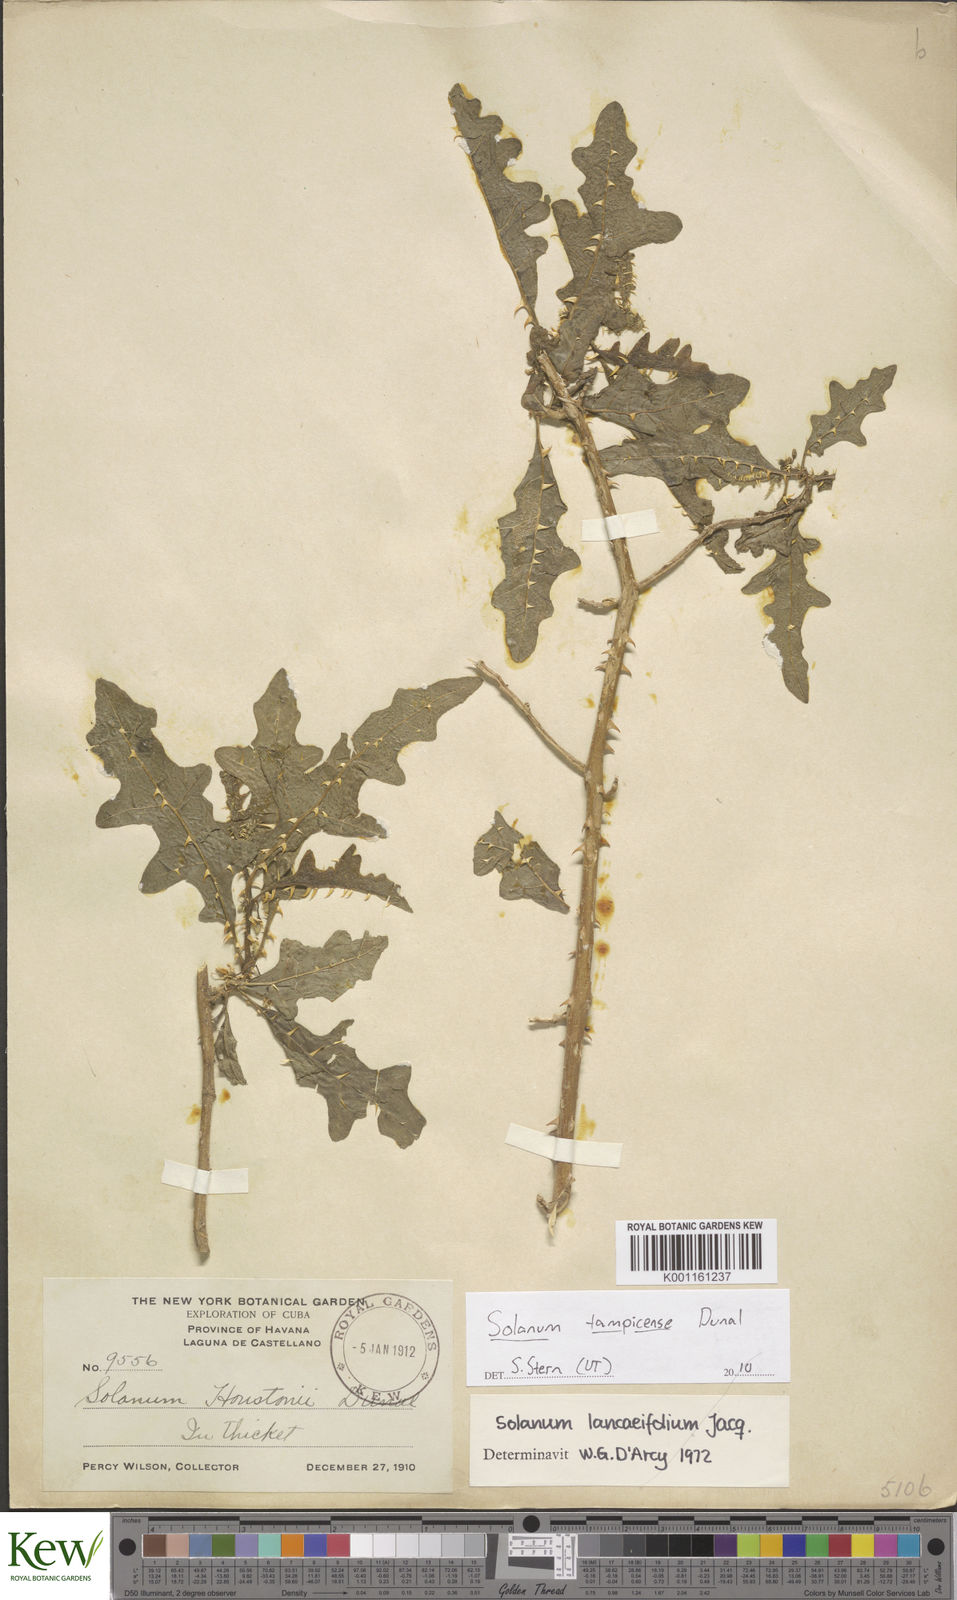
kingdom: Plantae
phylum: Tracheophyta
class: Magnoliopsida
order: Solanales
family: Solanaceae
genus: Solanum
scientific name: Solanum tampicense
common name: Scrambling nightshade
